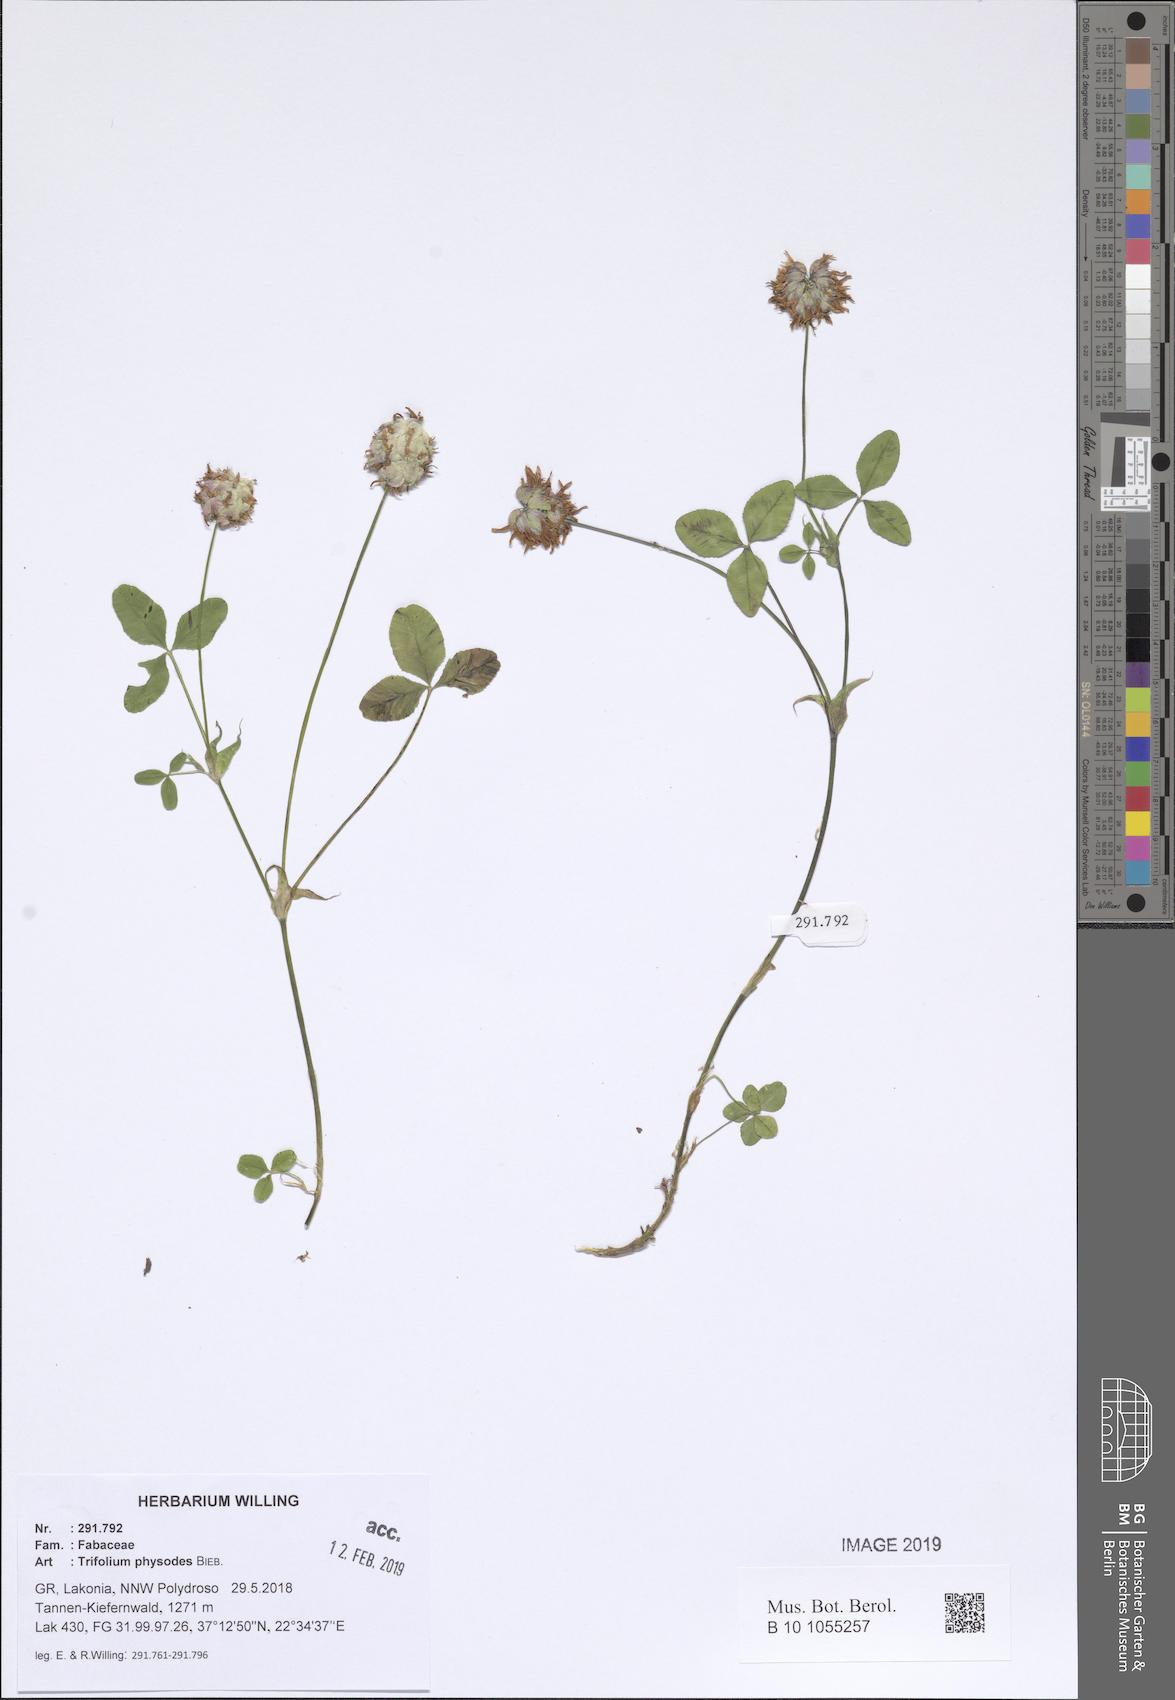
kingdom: Plantae
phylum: Tracheophyta
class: Magnoliopsida
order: Fabales
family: Fabaceae
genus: Trifolium
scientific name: Trifolium physodes
